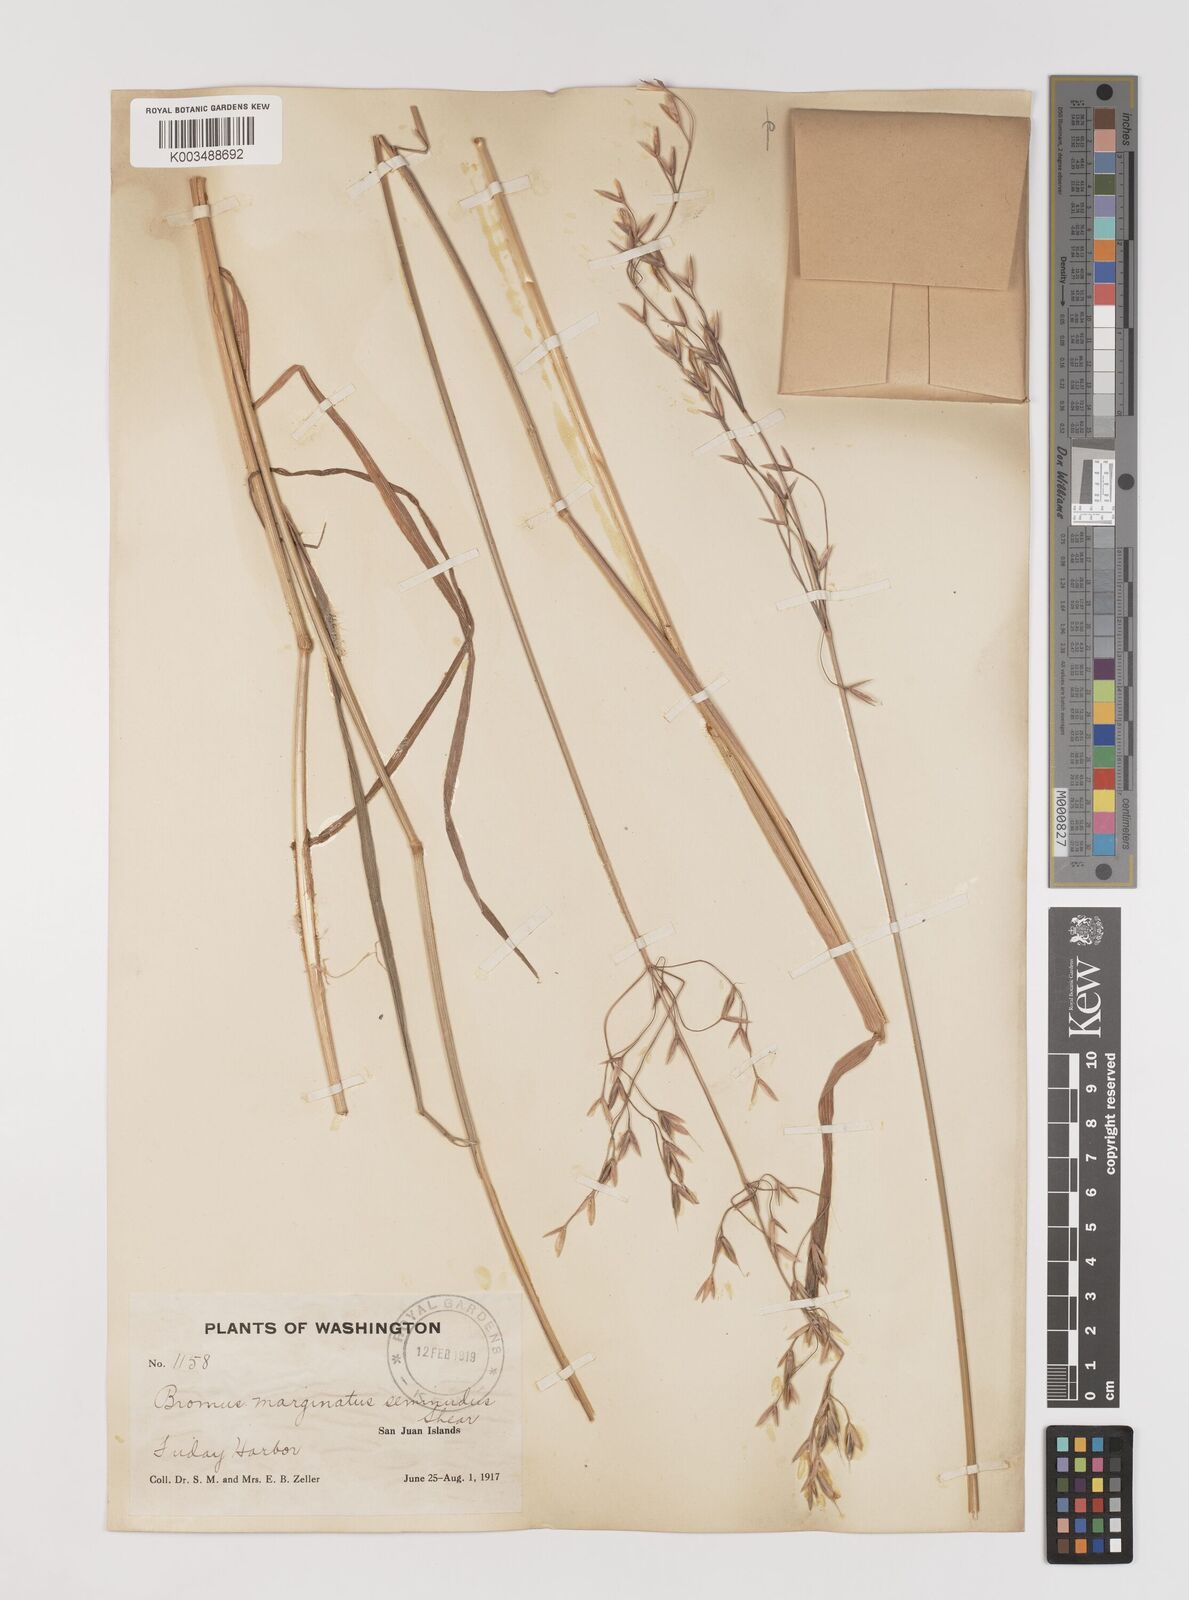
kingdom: Plantae
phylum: Tracheophyta
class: Liliopsida
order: Poales
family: Poaceae
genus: Bromus
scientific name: Bromus racemosus
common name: Bald brome
